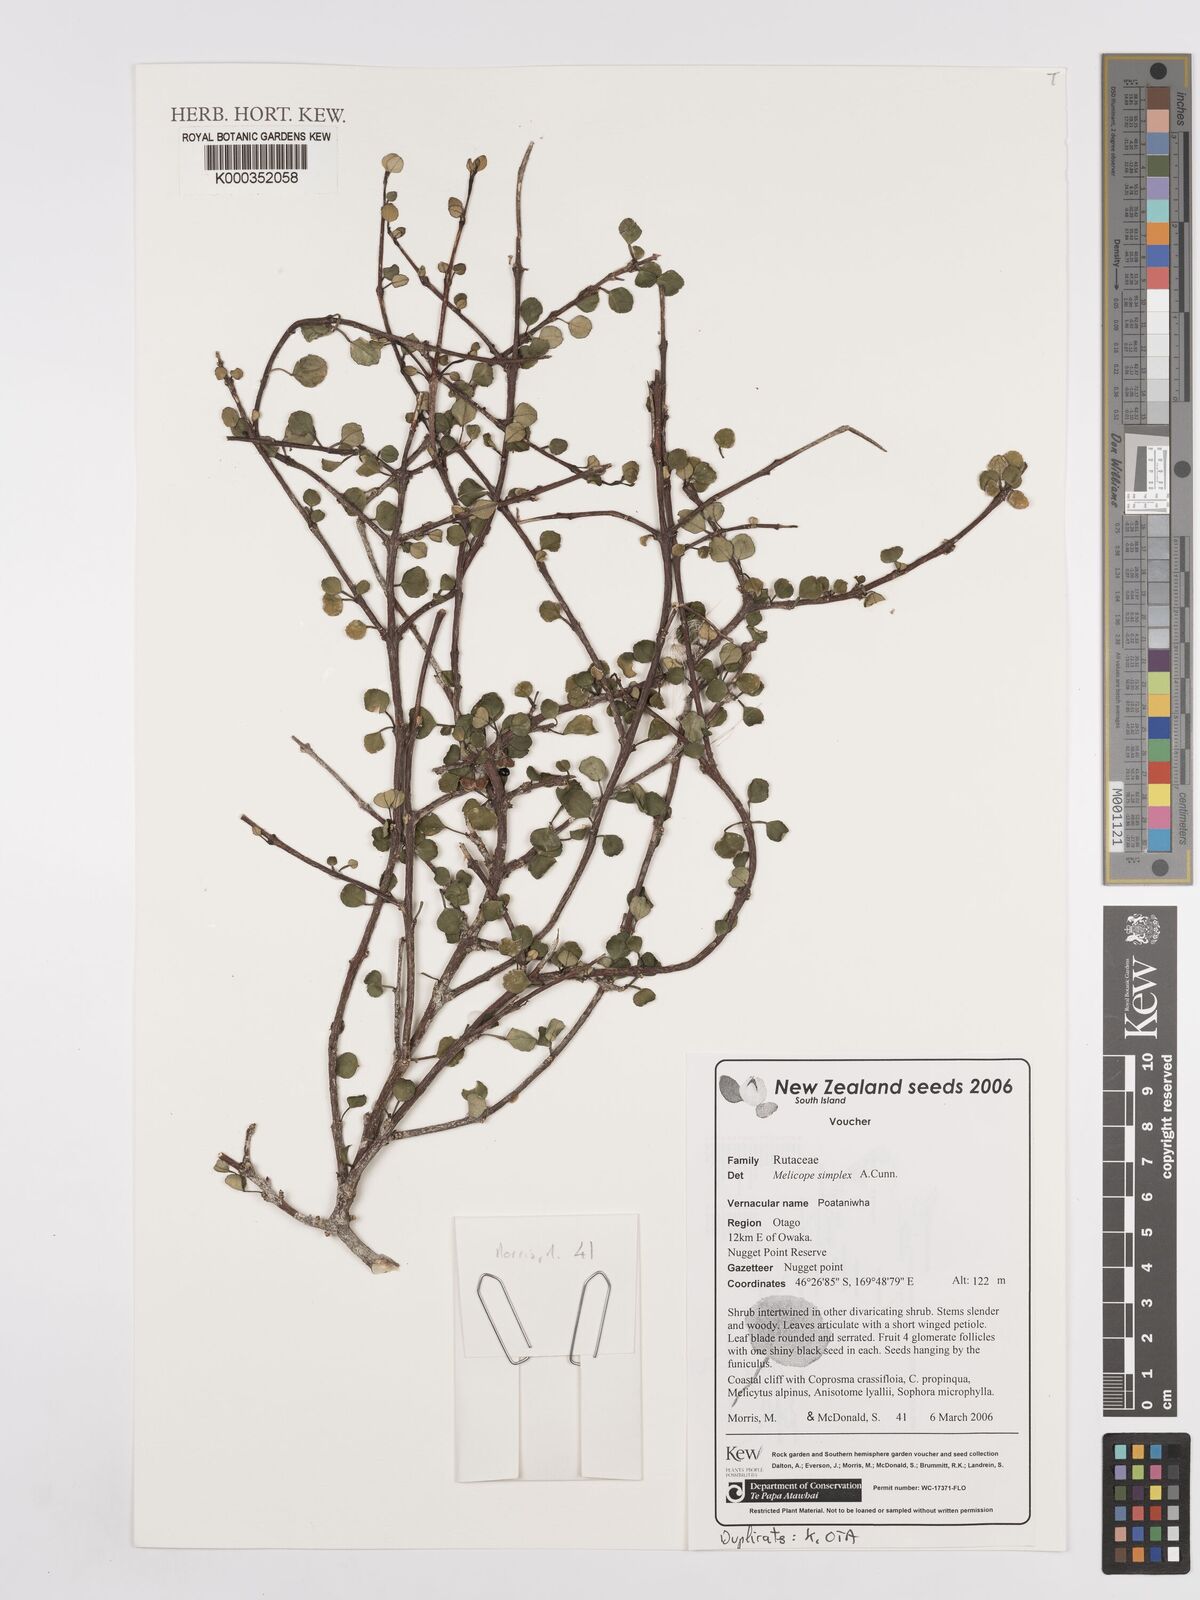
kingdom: Plantae
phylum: Tracheophyta
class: Magnoliopsida
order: Sapindales
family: Rutaceae
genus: Melicope
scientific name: Melicope simplex
